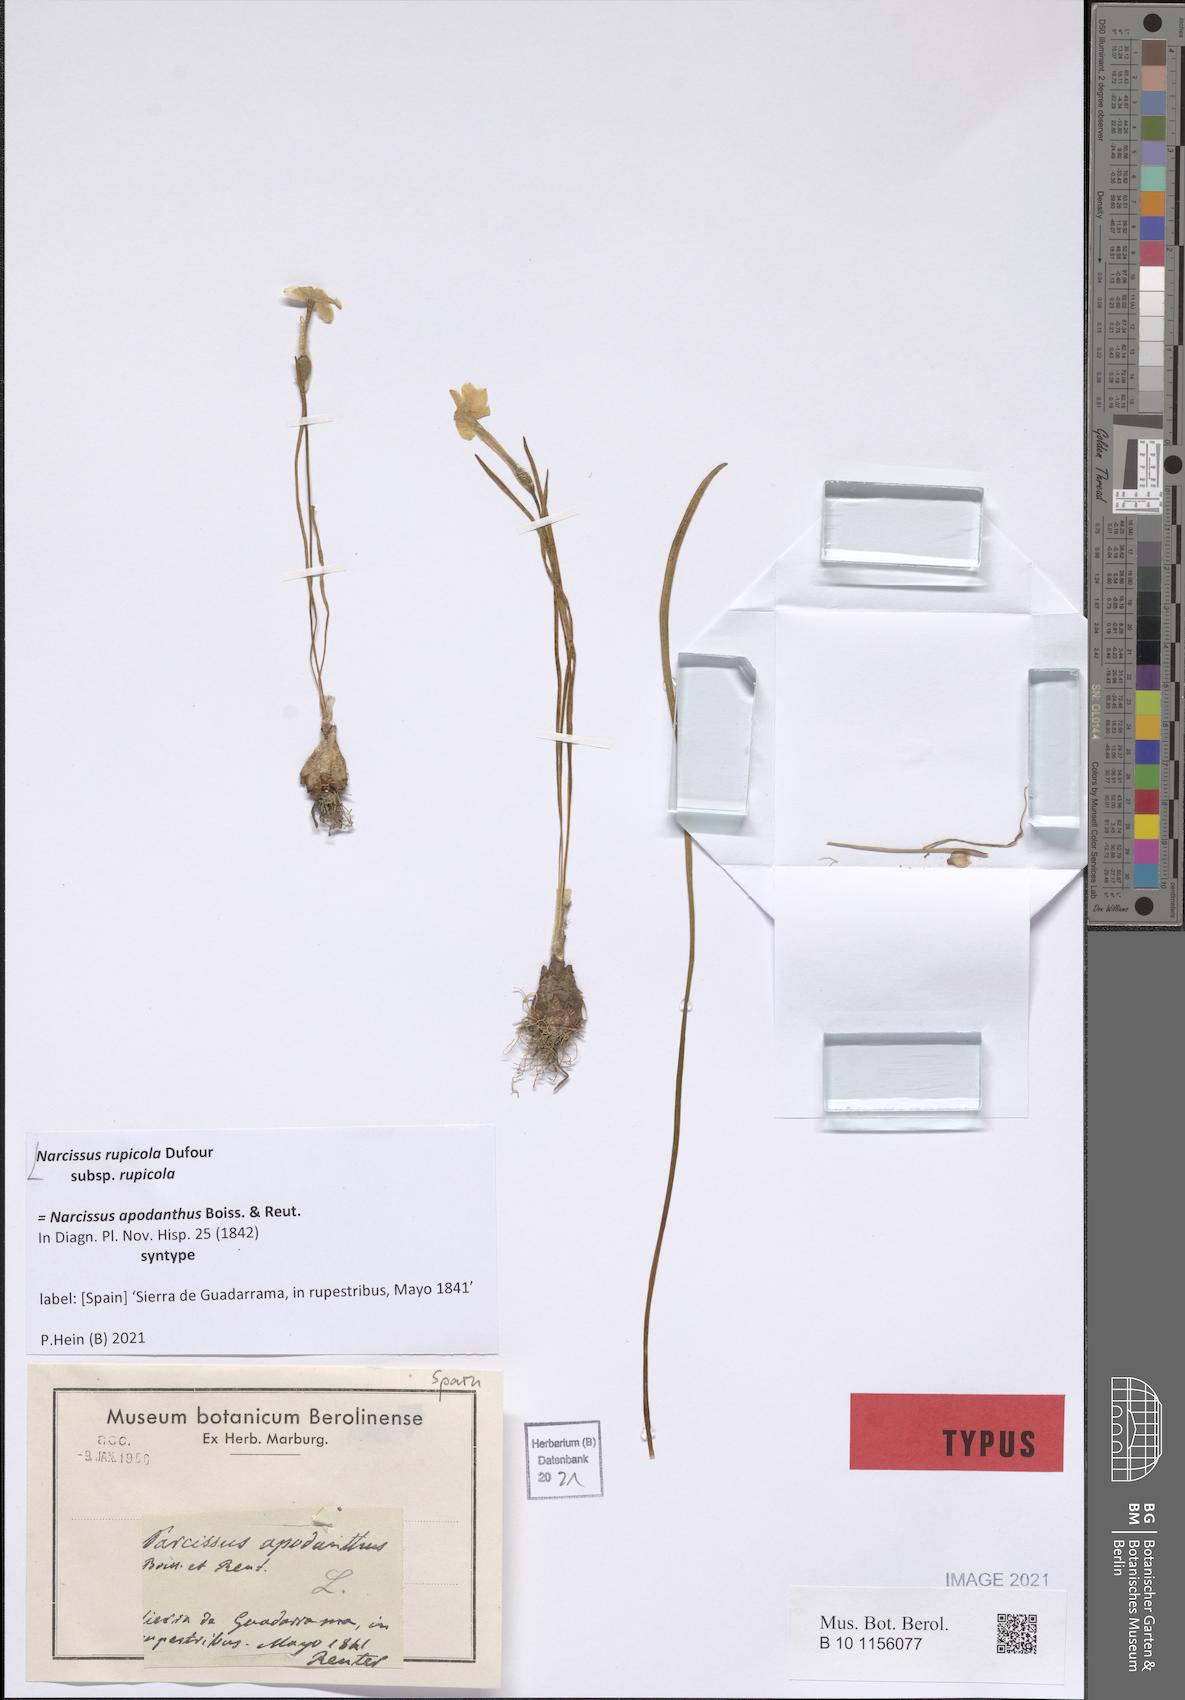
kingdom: Plantae
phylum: Tracheophyta
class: Liliopsida
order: Asparagales
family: Amaryllidaceae
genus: Narcissus
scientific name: Narcissus rupicola
